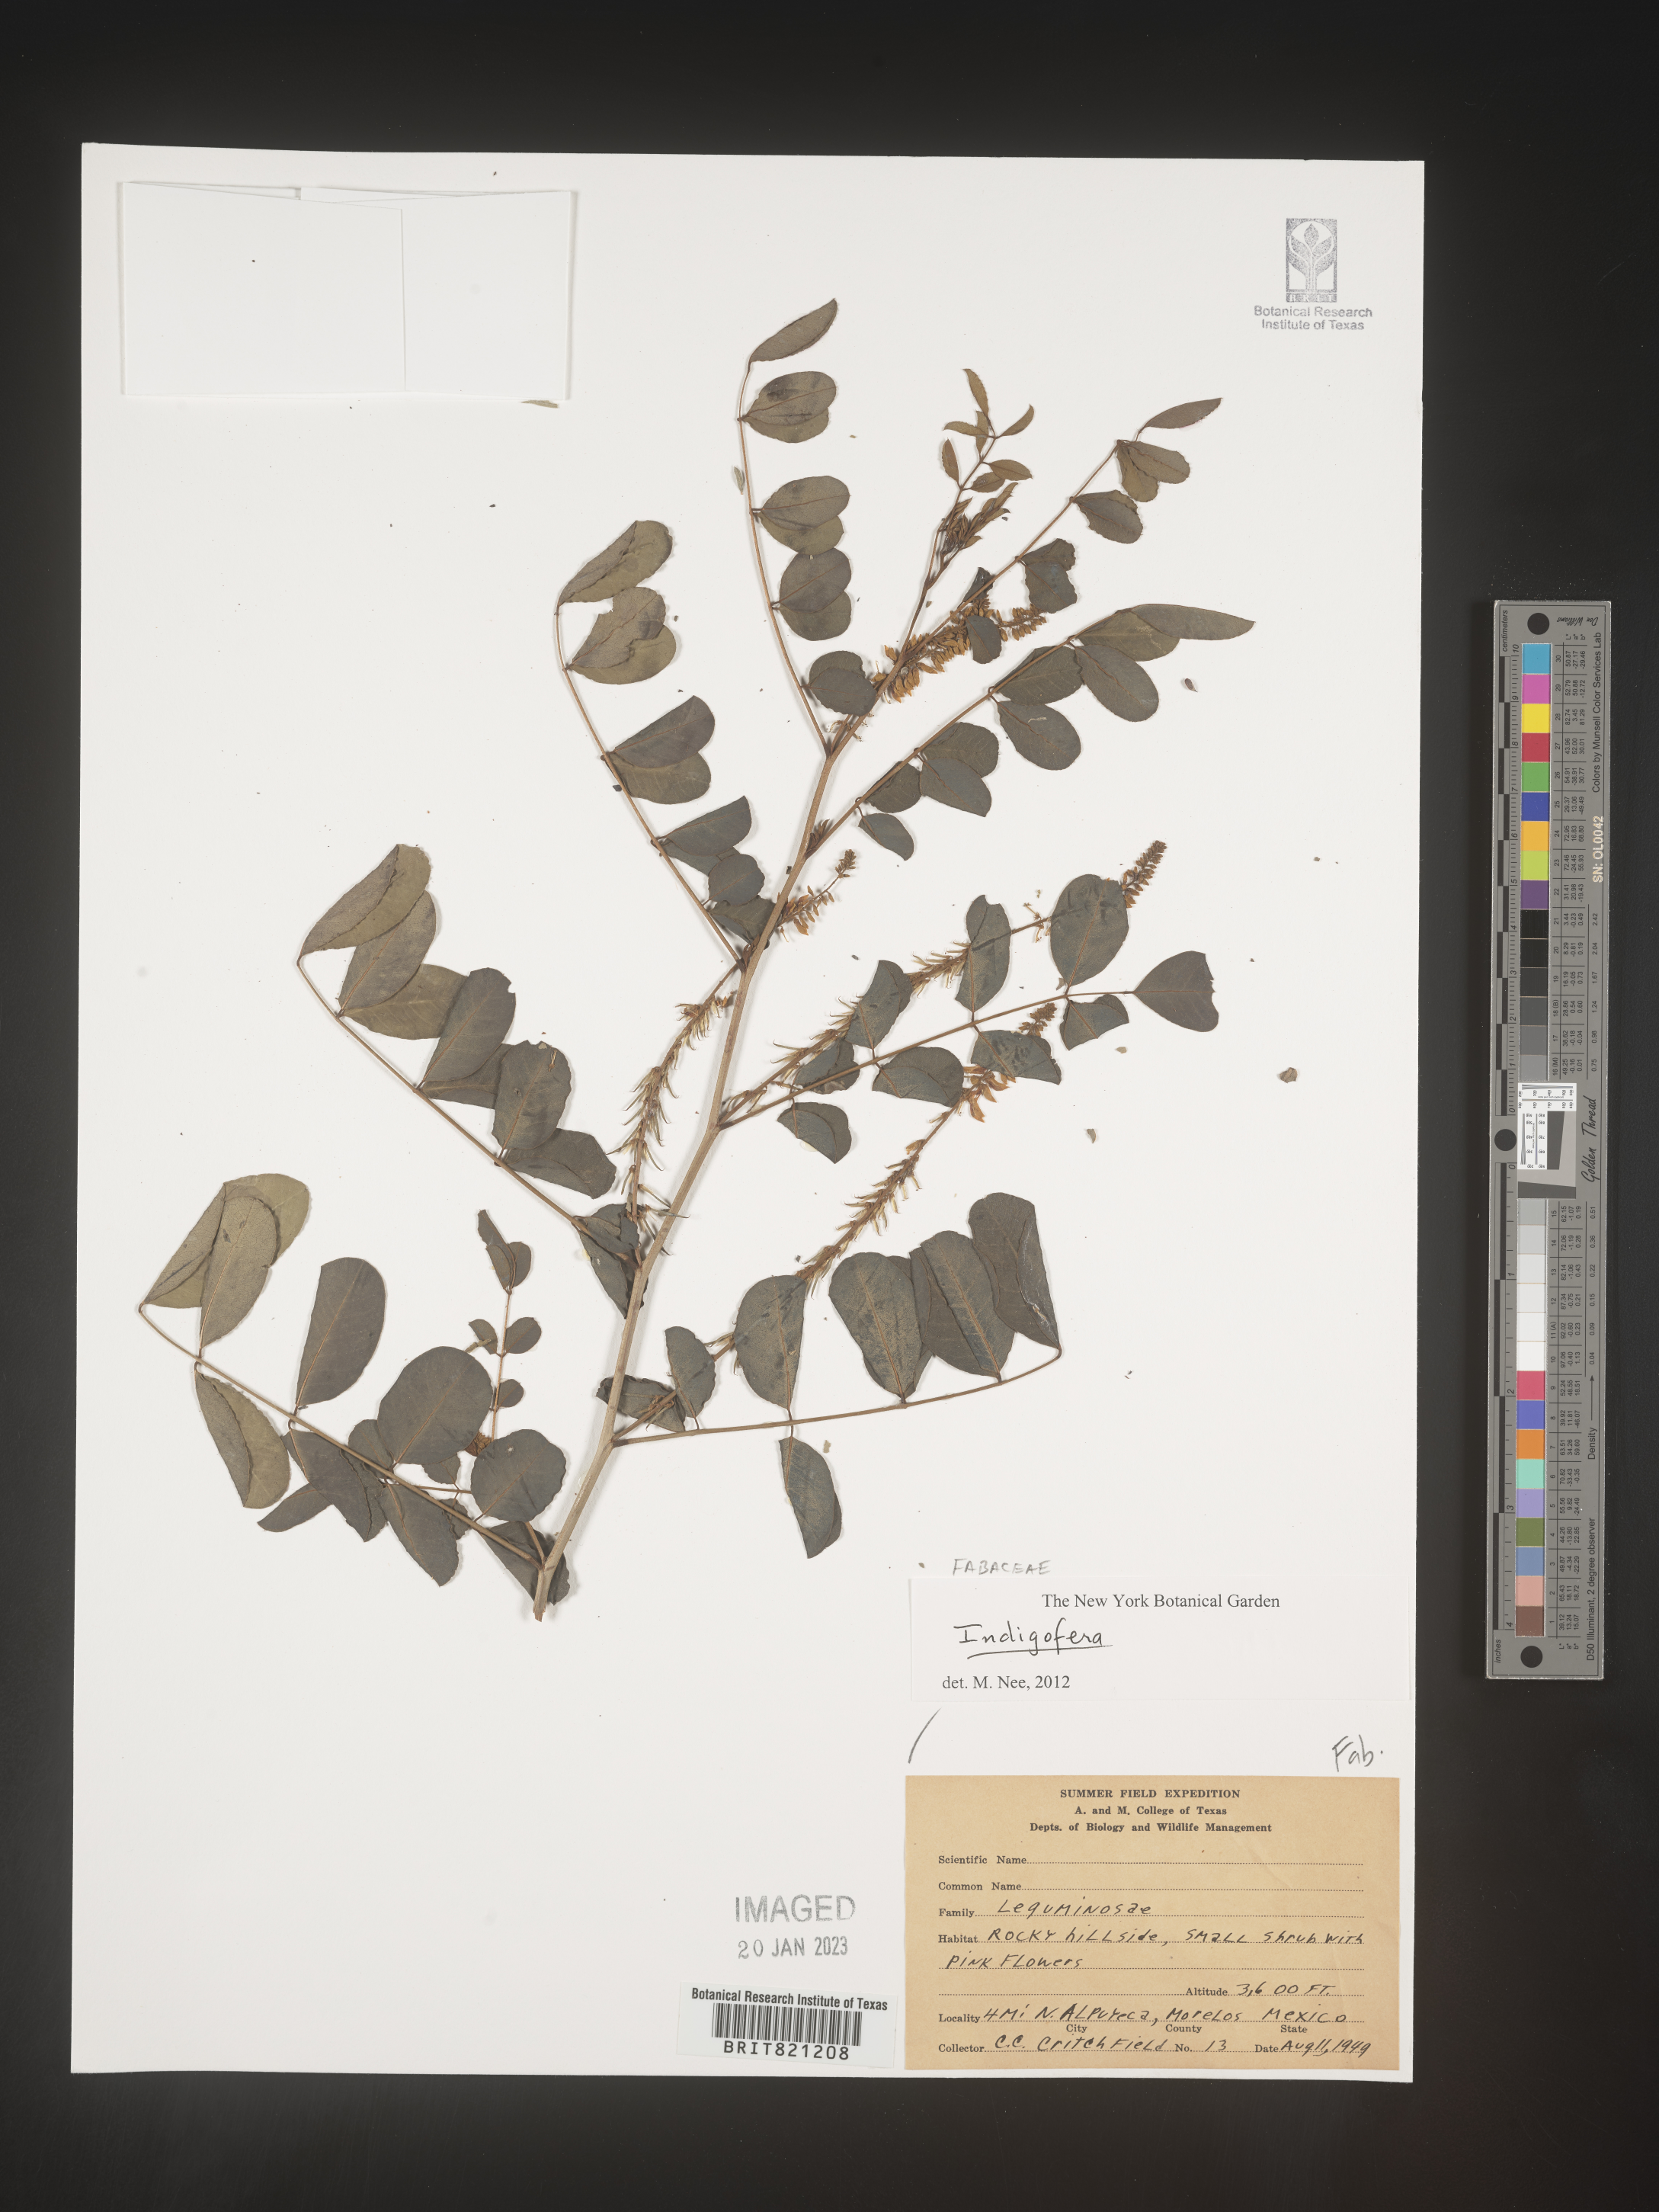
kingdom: Plantae
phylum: Tracheophyta
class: Magnoliopsida
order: Fabales
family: Fabaceae
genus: Indigofera
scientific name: Indigofera
